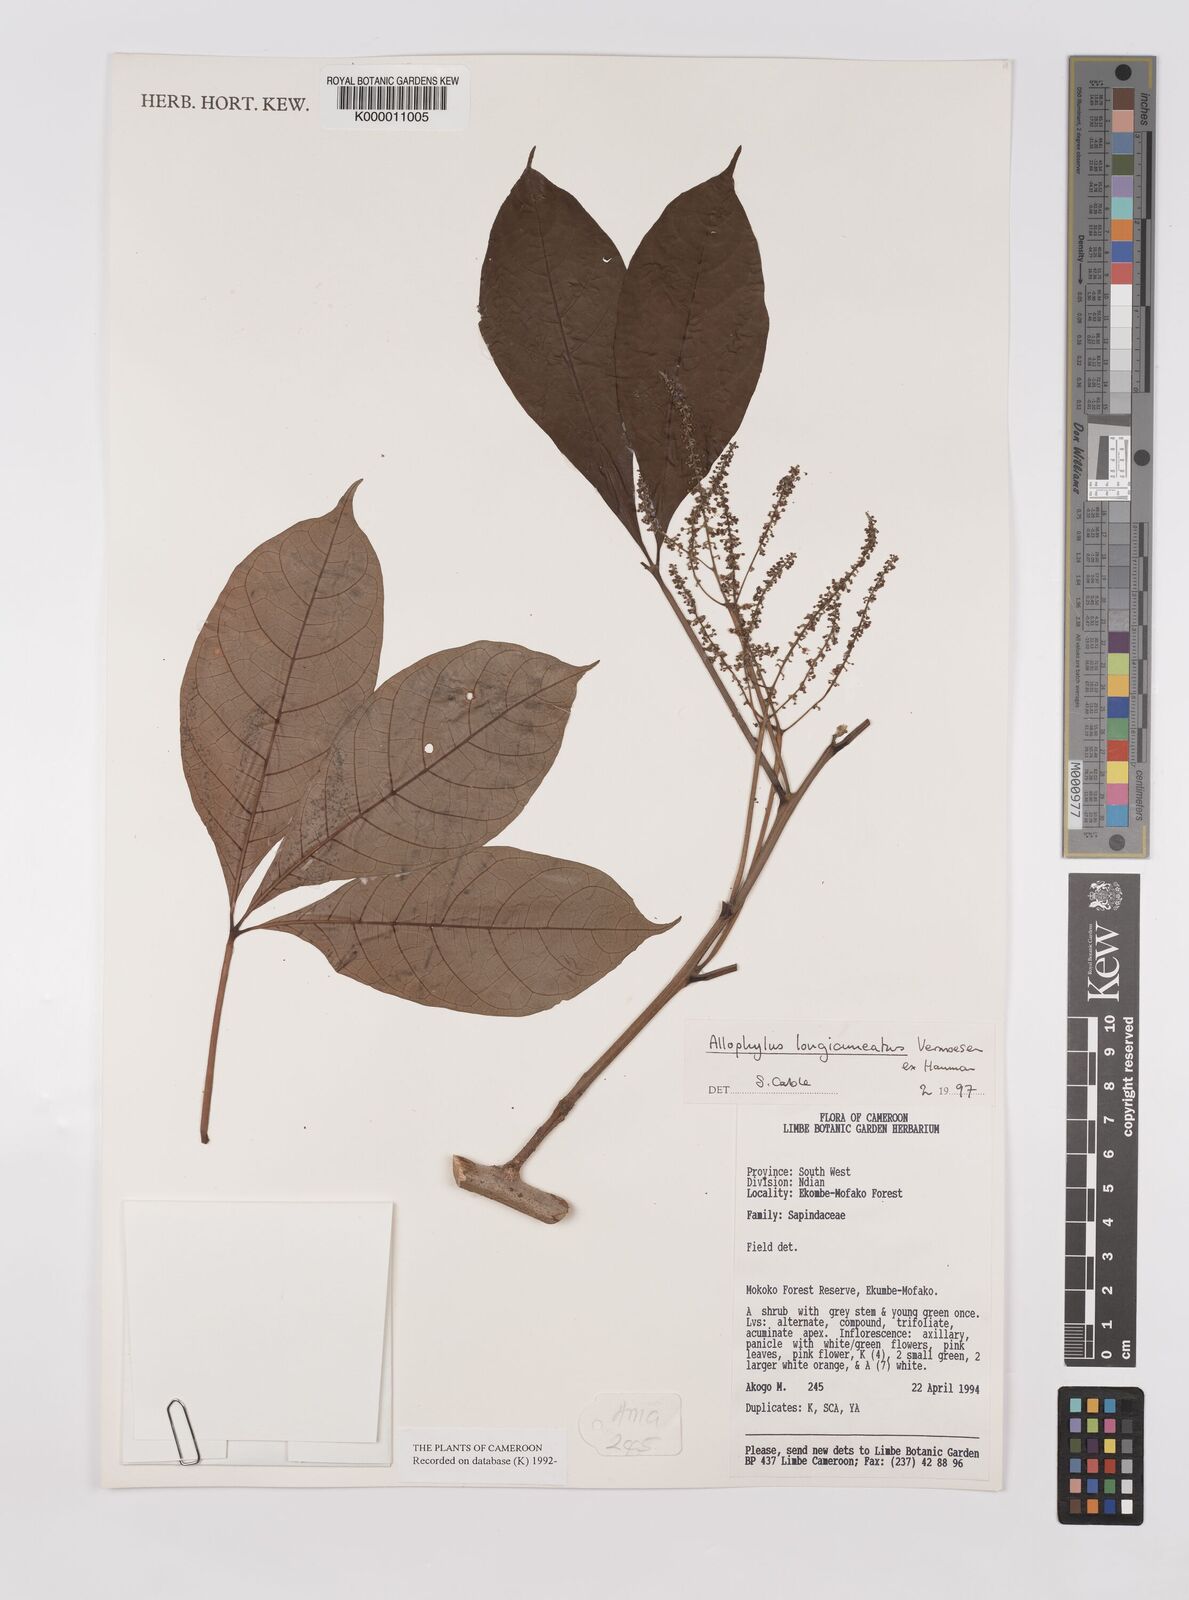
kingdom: Plantae
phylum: Tracheophyta
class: Magnoliopsida
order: Sapindales
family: Sapindaceae
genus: Allophylus
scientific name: Allophylus longicuneatus
